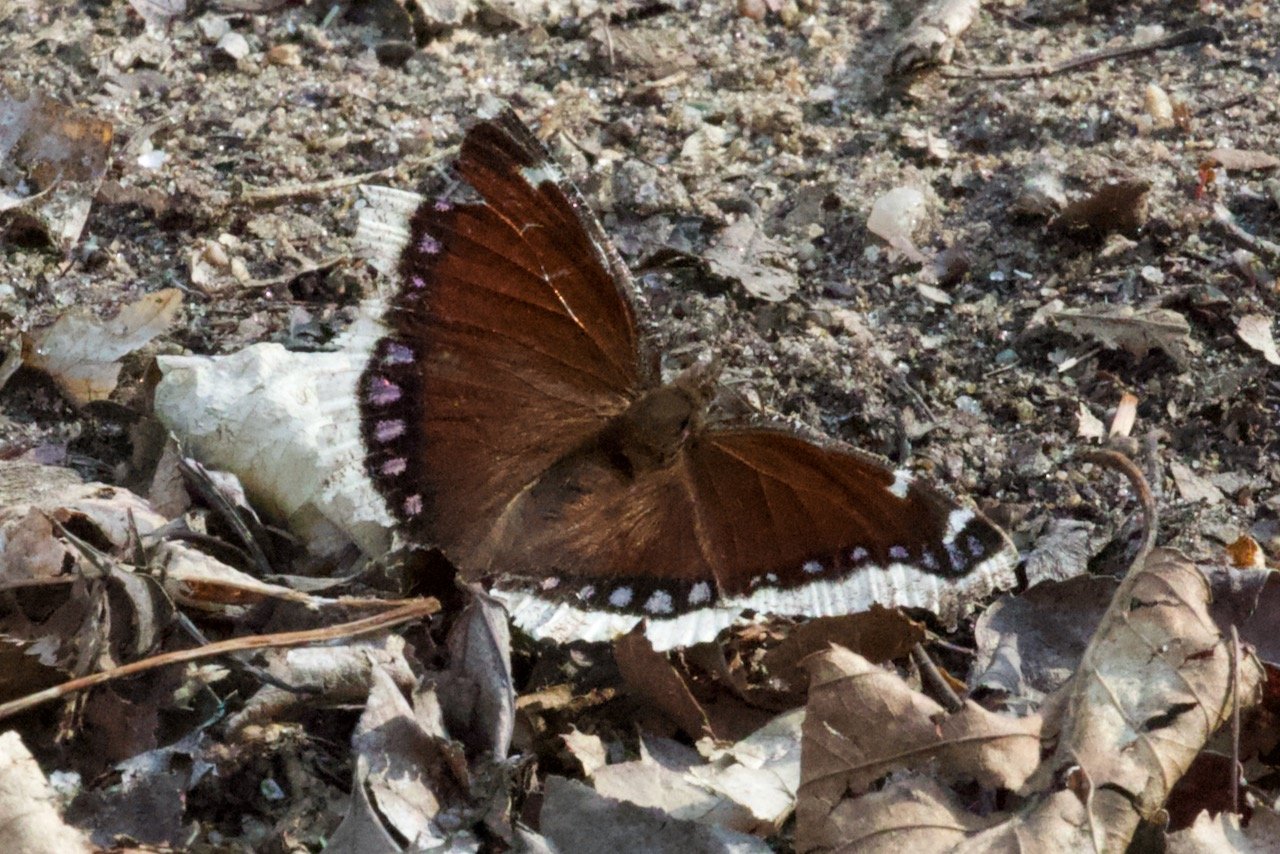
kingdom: Animalia
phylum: Arthropoda
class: Insecta
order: Lepidoptera
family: Nymphalidae
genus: Nymphalis
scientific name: Nymphalis antiopa
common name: Mourning Cloak
